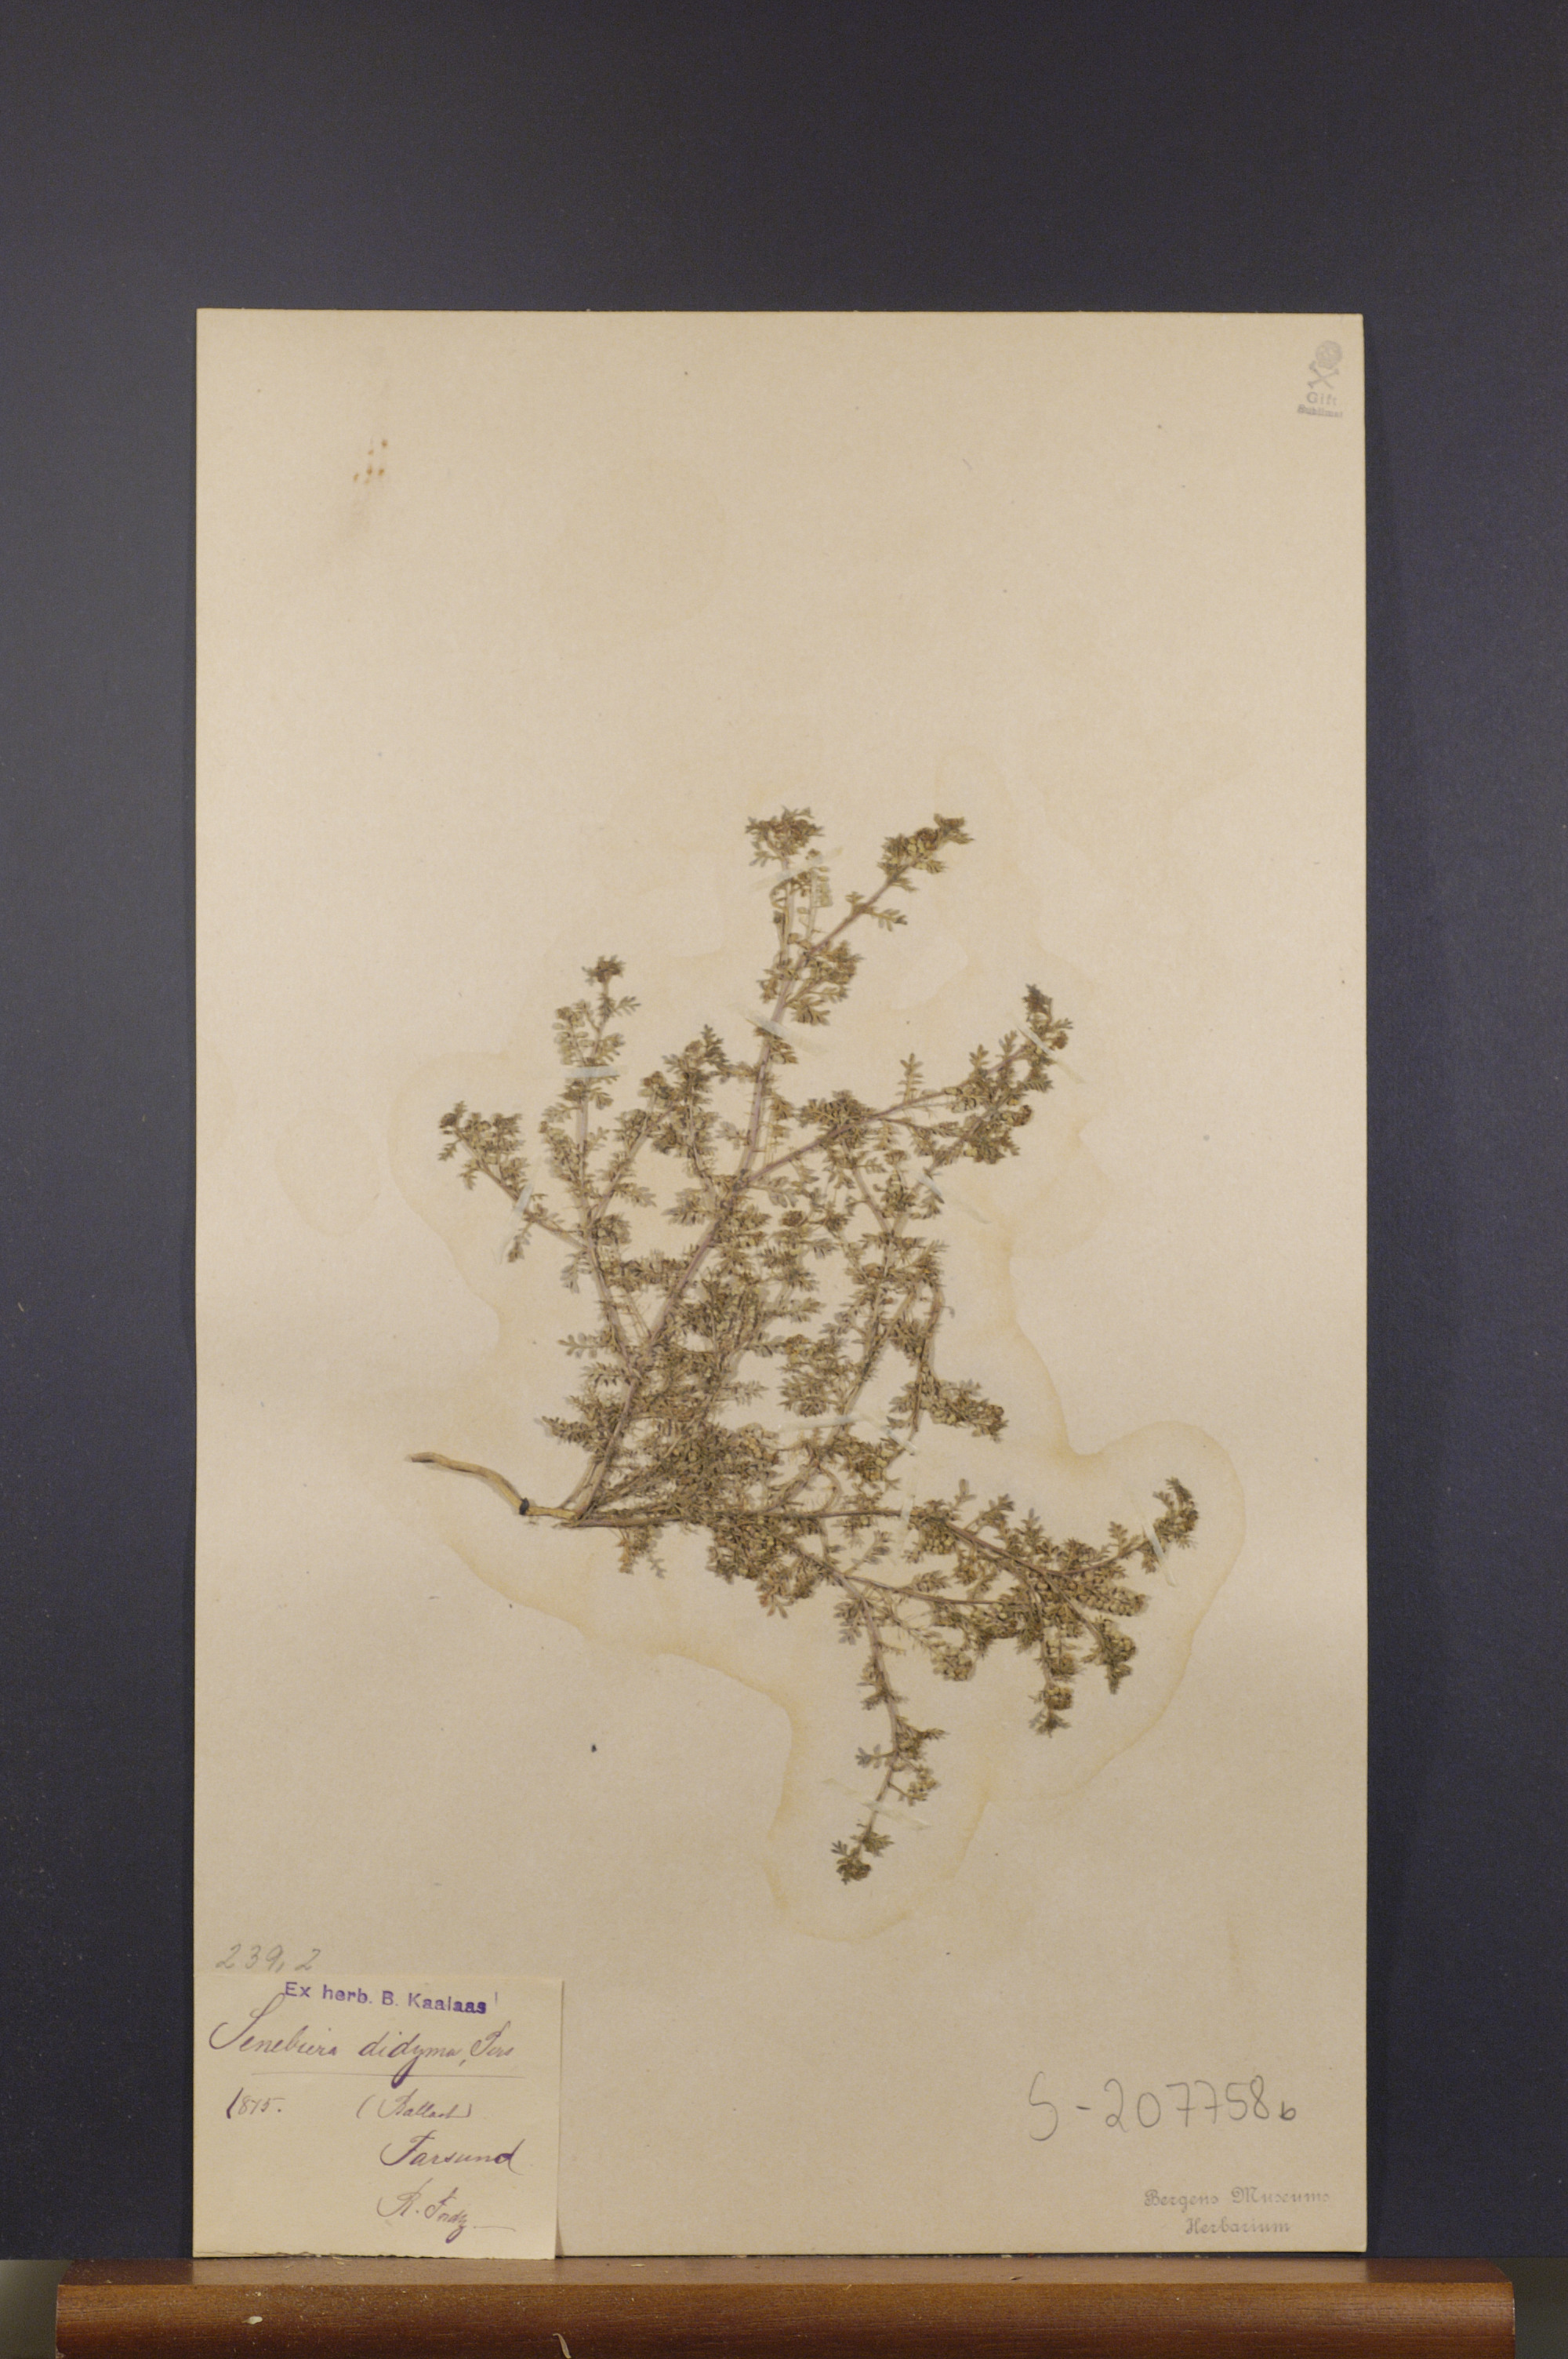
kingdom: Plantae
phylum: Tracheophyta
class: Magnoliopsida
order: Brassicales
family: Brassicaceae
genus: Lepidium
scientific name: Lepidium didymum
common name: Lesser swinecress
